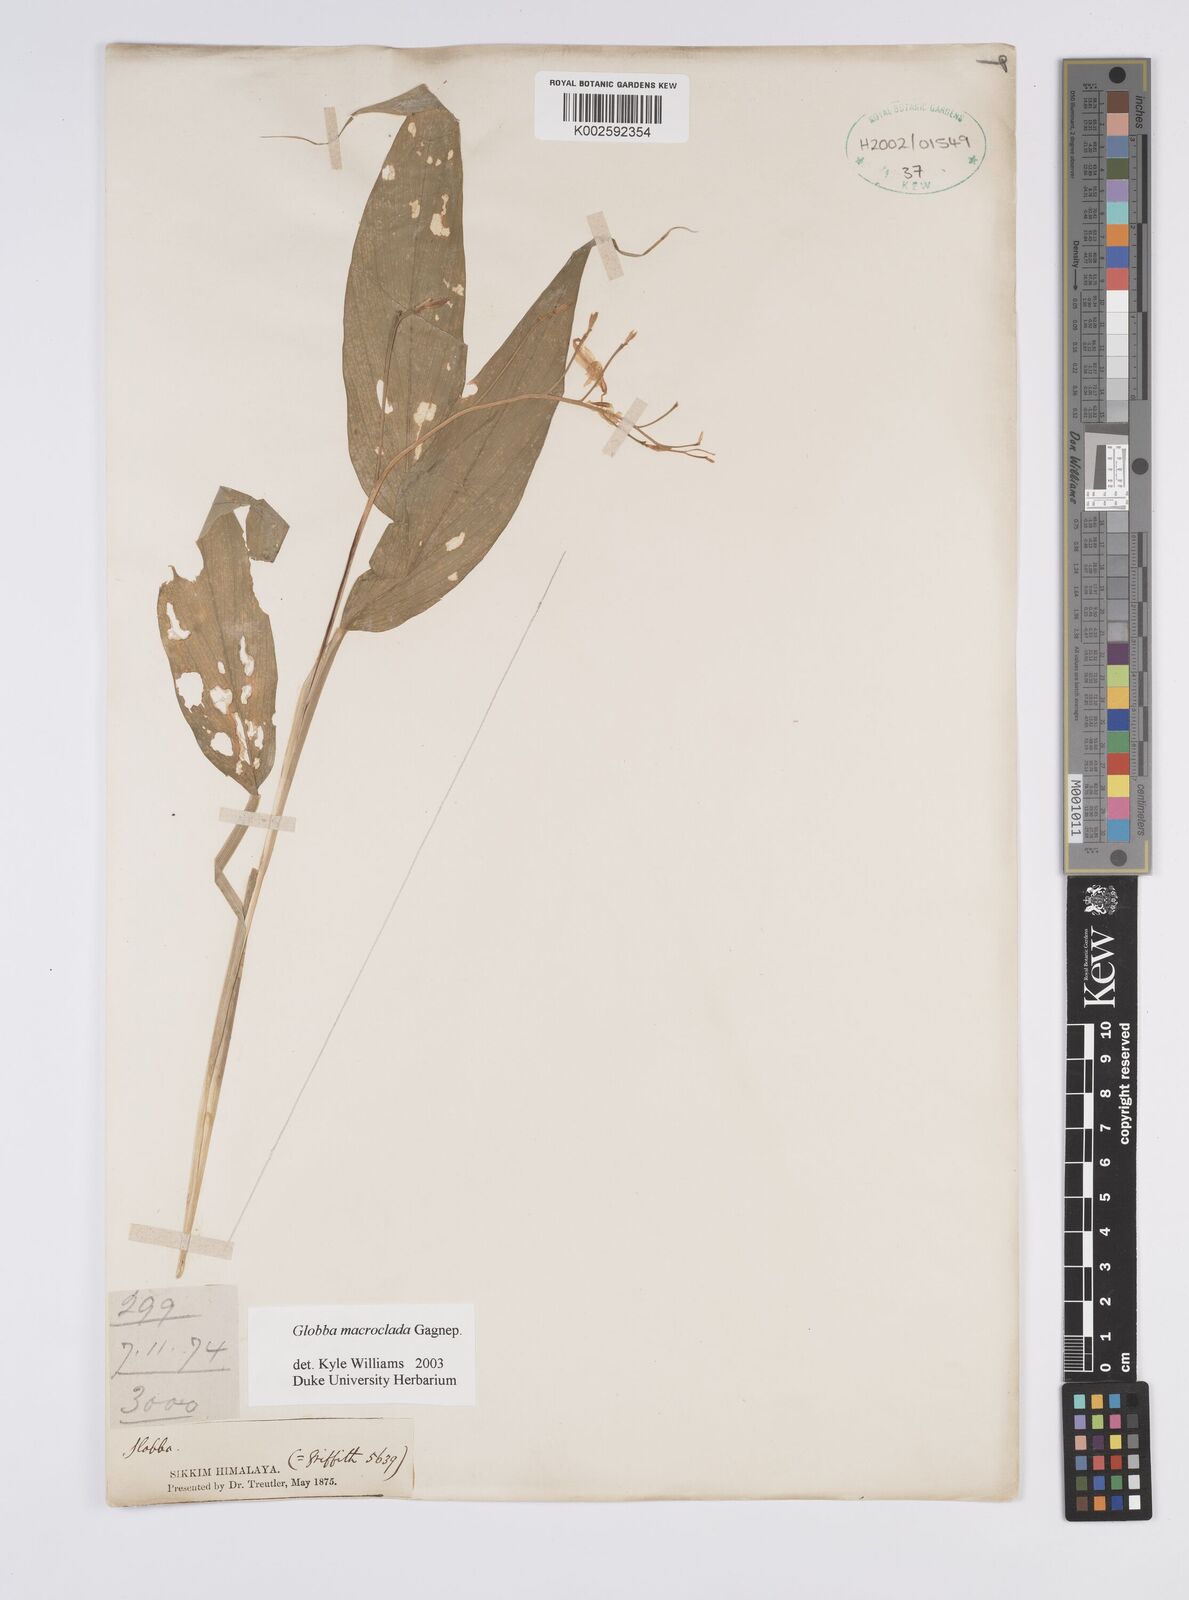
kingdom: Plantae
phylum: Tracheophyta
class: Liliopsida
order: Zingiberales
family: Zingiberaceae
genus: Globba
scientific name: Globba macroclada
